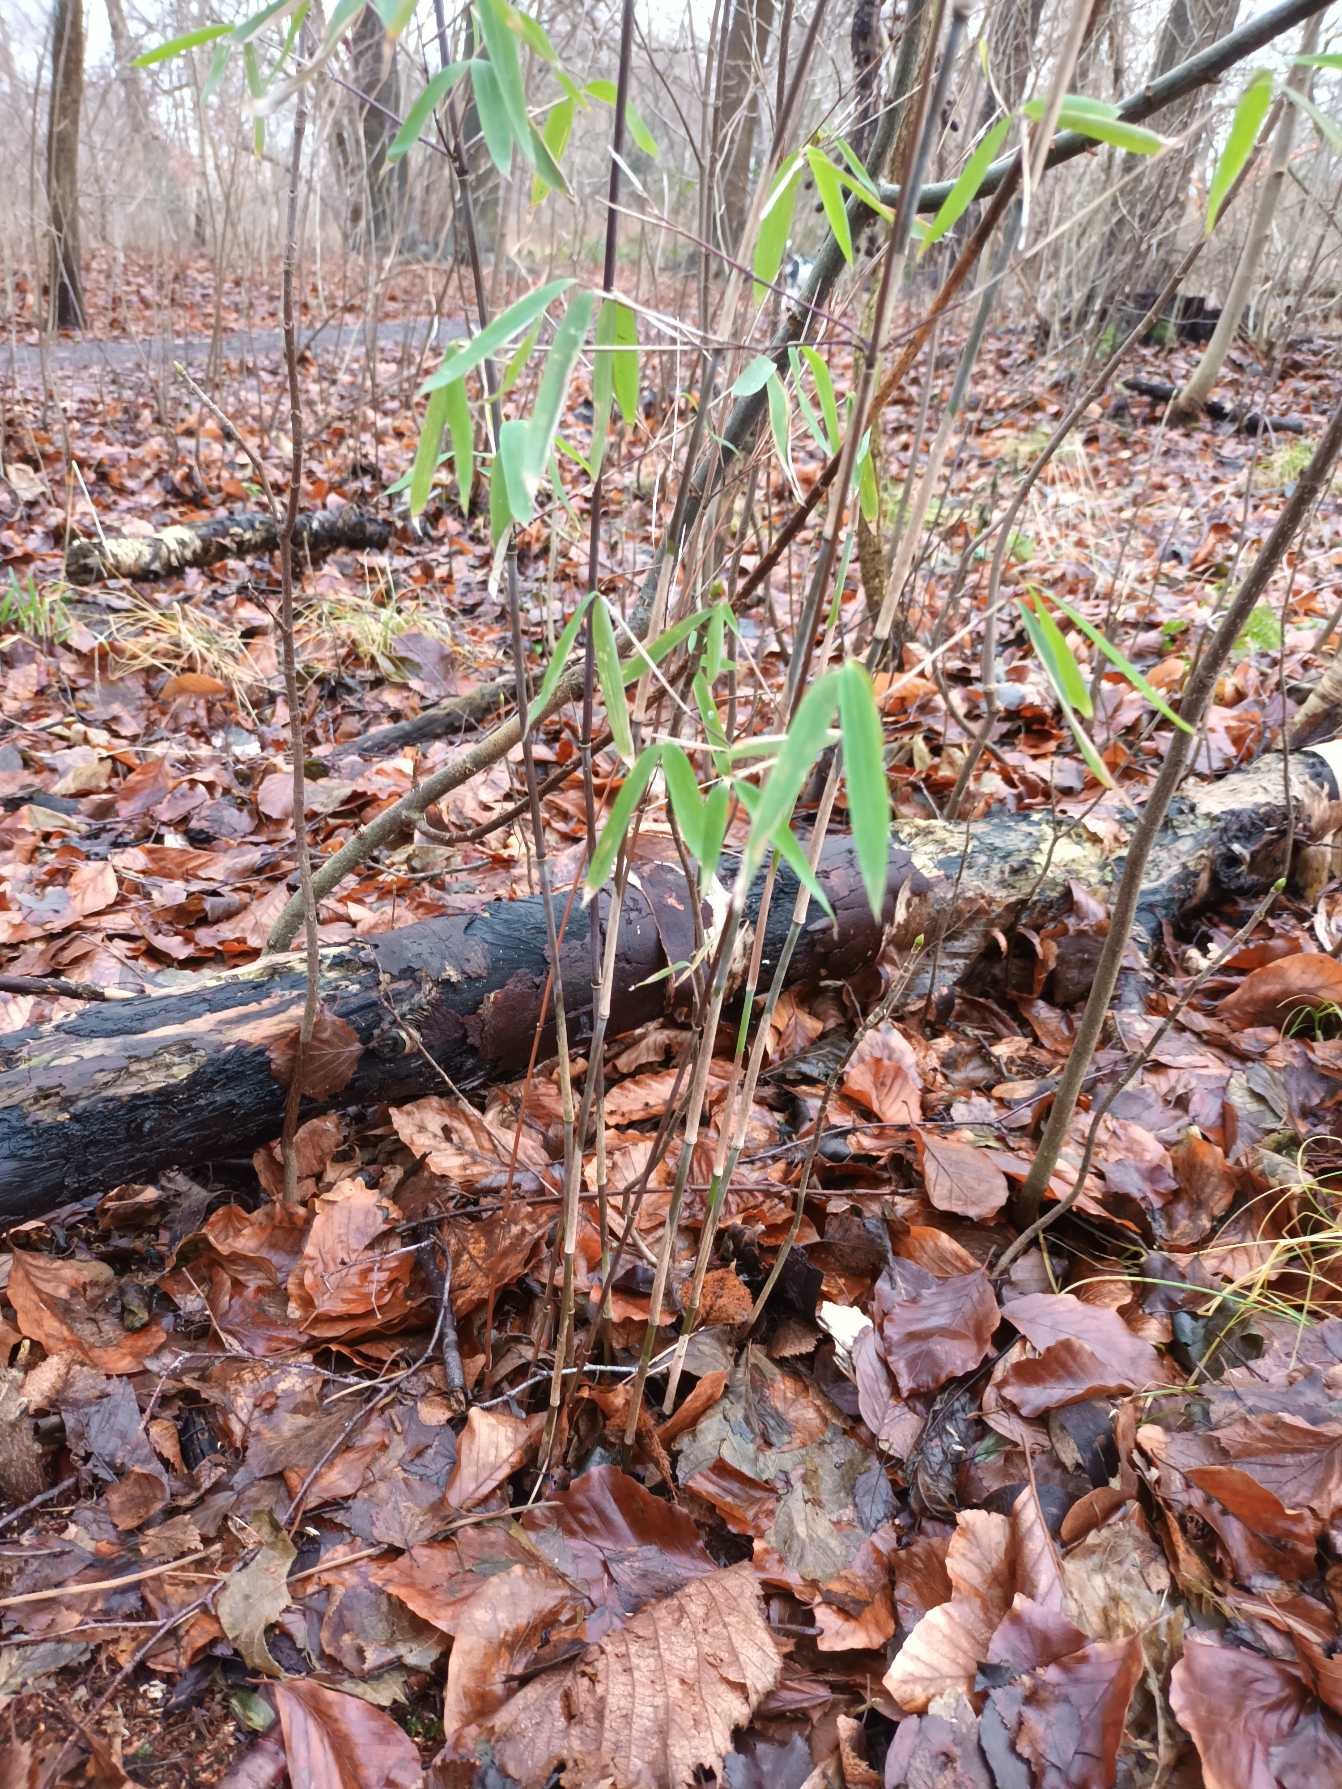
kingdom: Plantae
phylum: Tracheophyta
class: Liliopsida
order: Poales
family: Poaceae
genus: Fargesia
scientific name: Fargesia spathacea
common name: Sort bambus
